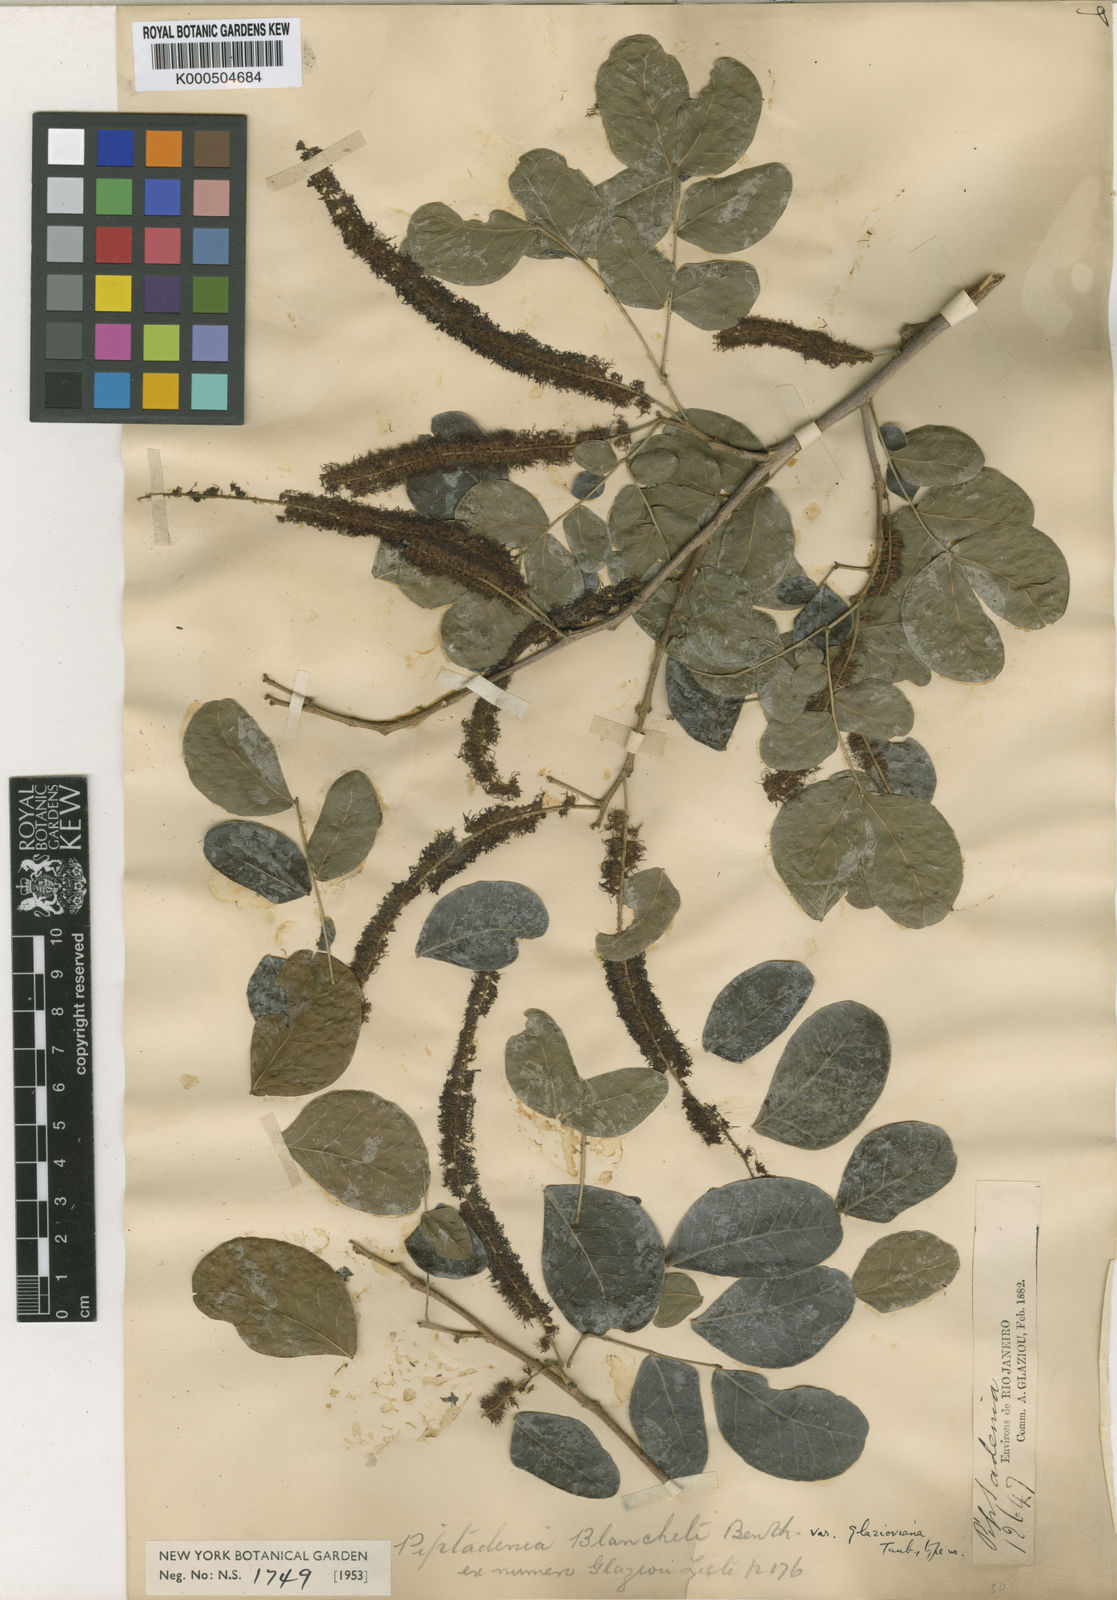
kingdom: Plantae
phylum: Tracheophyta
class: Magnoliopsida
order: Fabales
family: Fabaceae
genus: Parapiptadenia
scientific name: Parapiptadenia blanchetii
